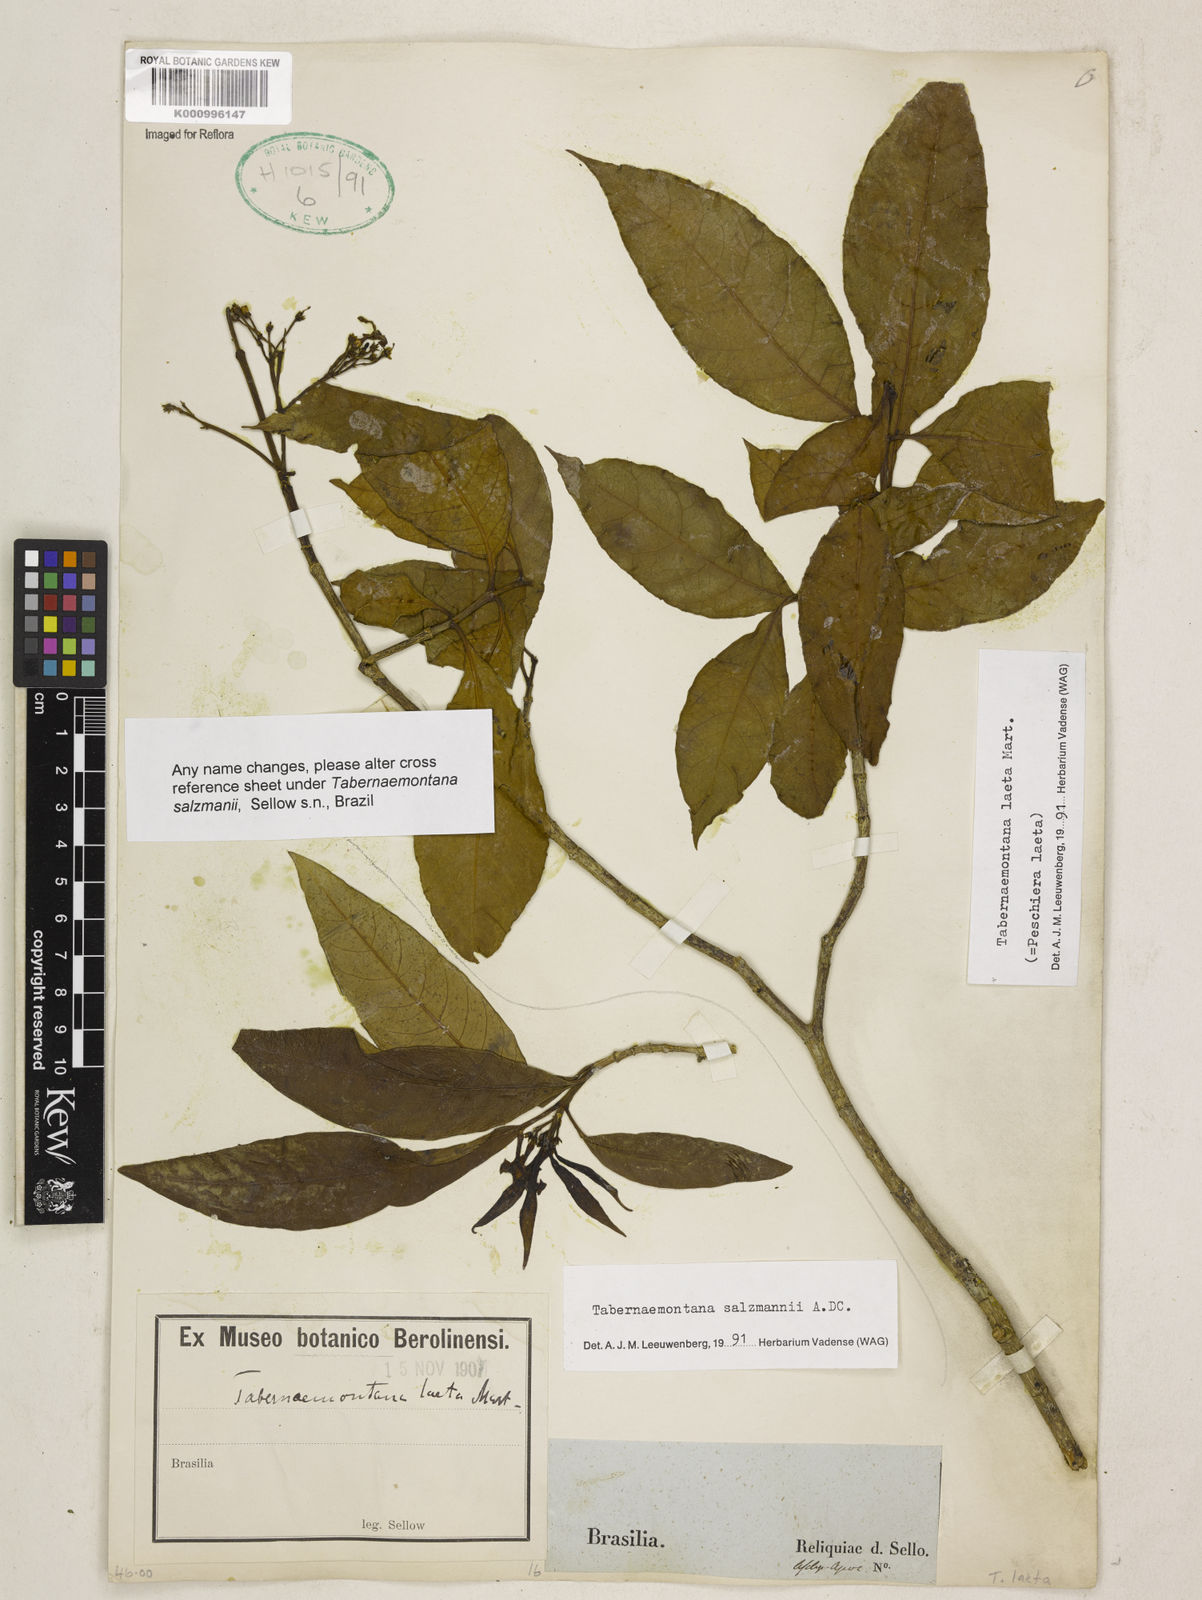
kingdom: Plantae
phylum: Tracheophyta
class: Magnoliopsida
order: Gentianales
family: Apocynaceae
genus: Tabernaemontana
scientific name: Tabernaemontana laeta
